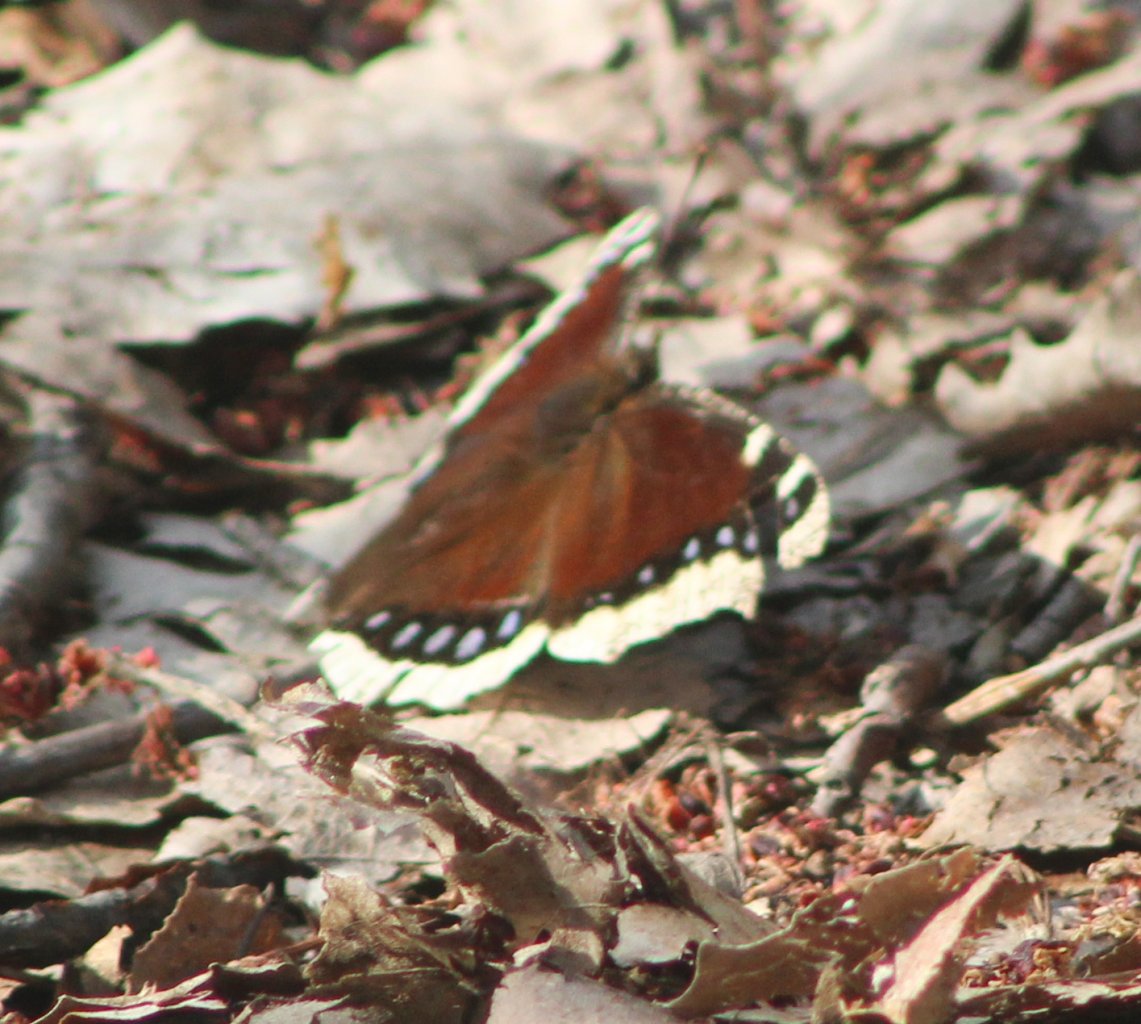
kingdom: Animalia
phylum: Arthropoda
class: Insecta
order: Lepidoptera
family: Nymphalidae
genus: Nymphalis
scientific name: Nymphalis antiopa
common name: Mourning Cloak
